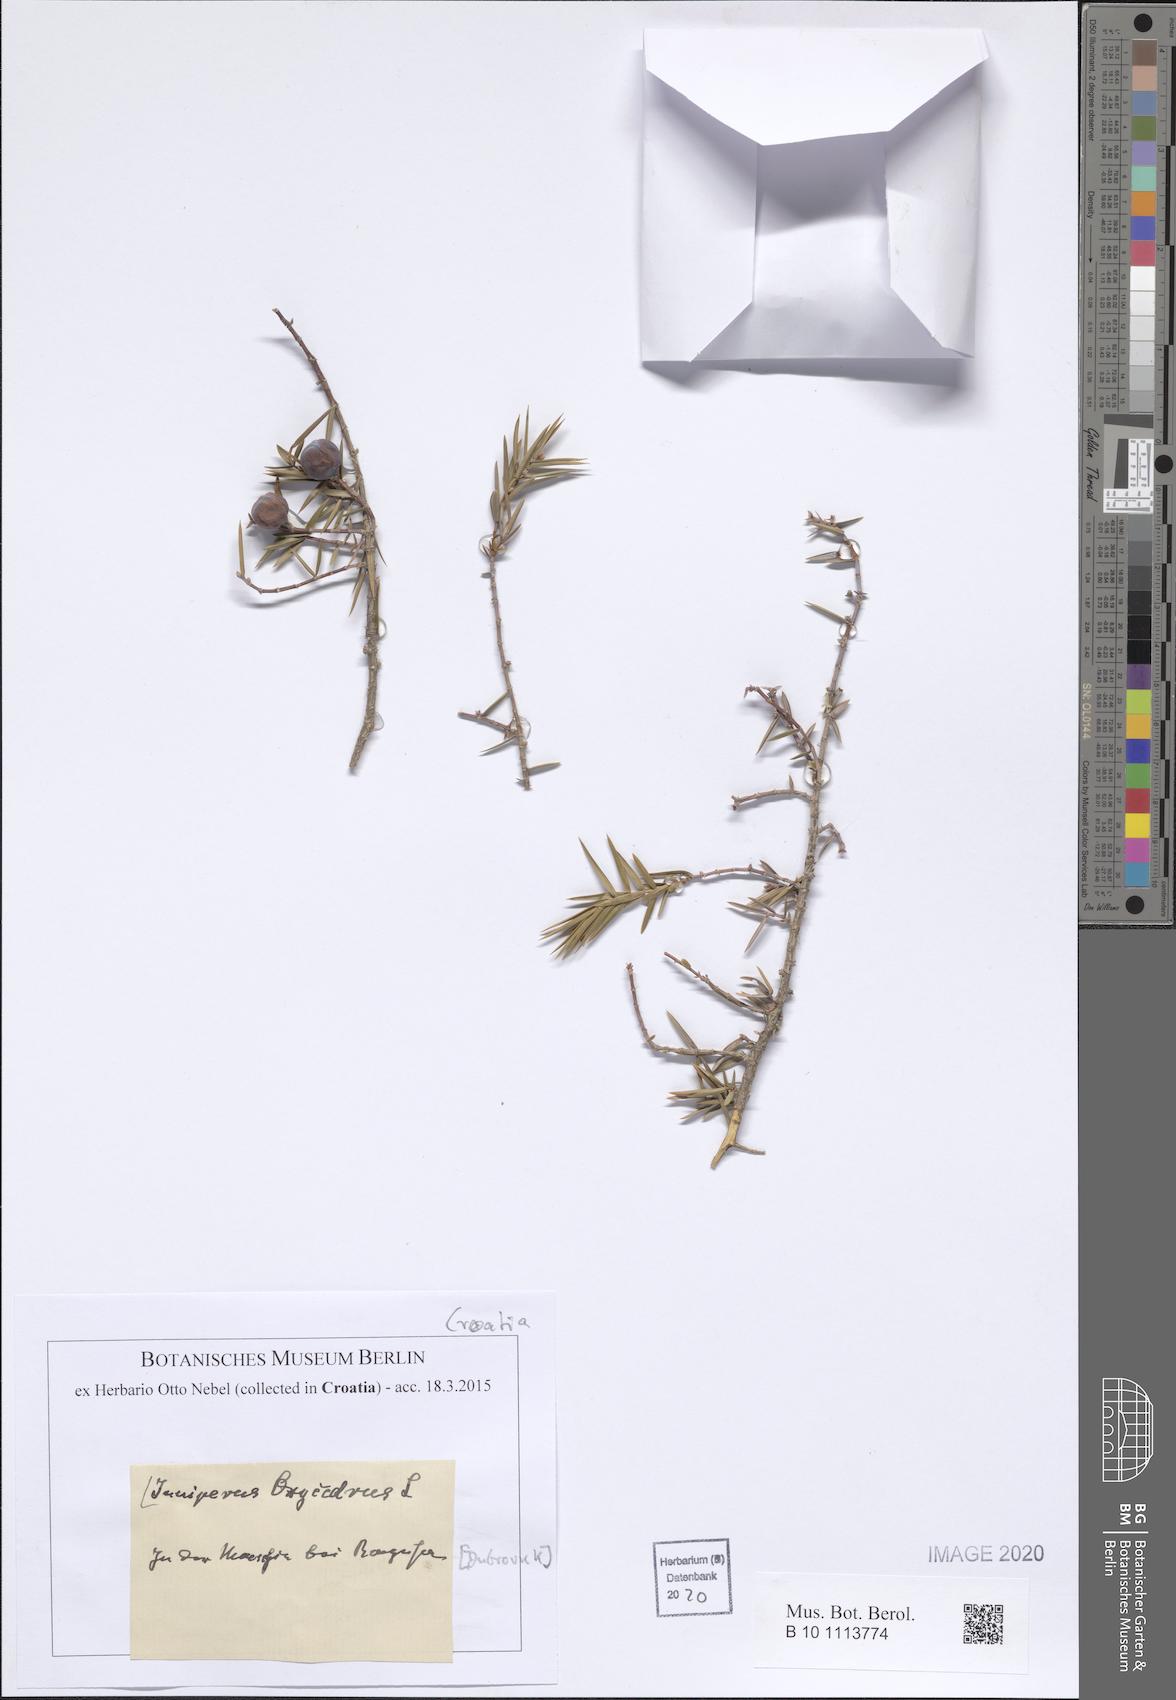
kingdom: Plantae
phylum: Tracheophyta
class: Pinopsida
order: Pinales
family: Cupressaceae
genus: Juniperus
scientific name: Juniperus oxycedrus
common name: Prickly juniper
